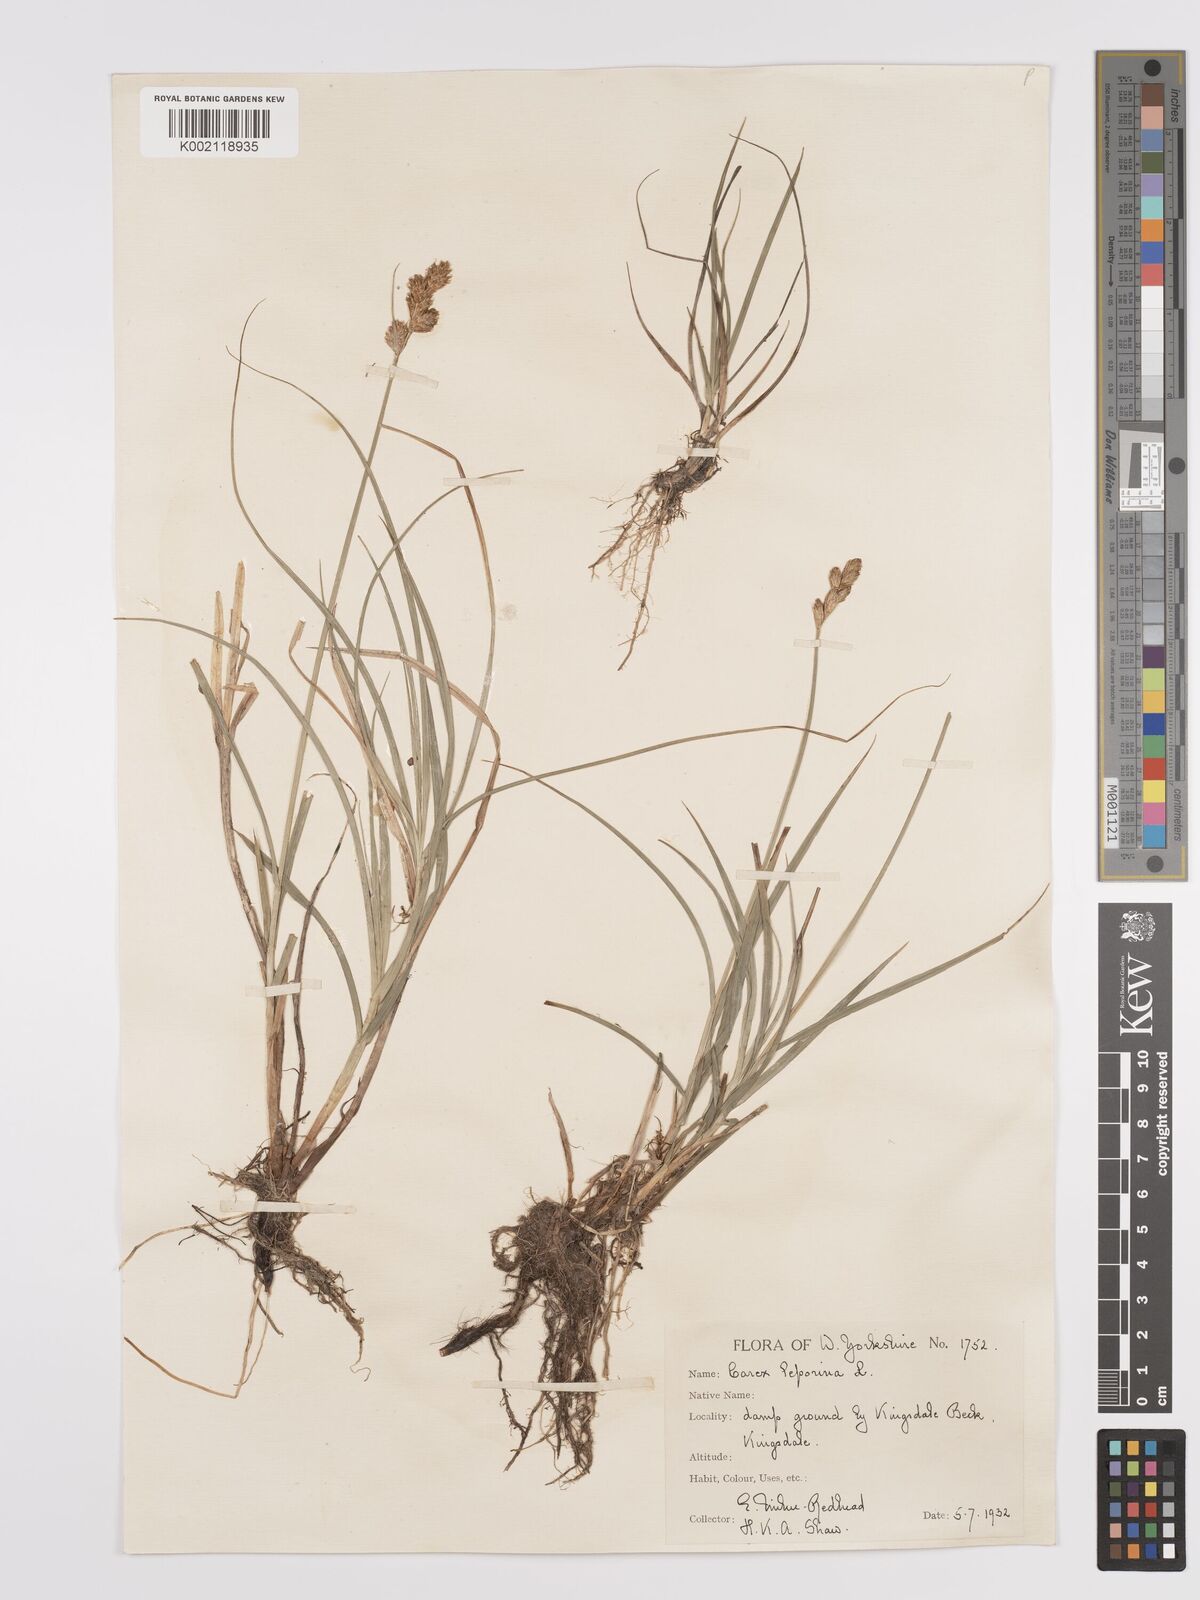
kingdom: Plantae
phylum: Tracheophyta
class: Liliopsida
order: Poales
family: Cyperaceae
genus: Carex
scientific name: Carex leporina
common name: Oval sedge
